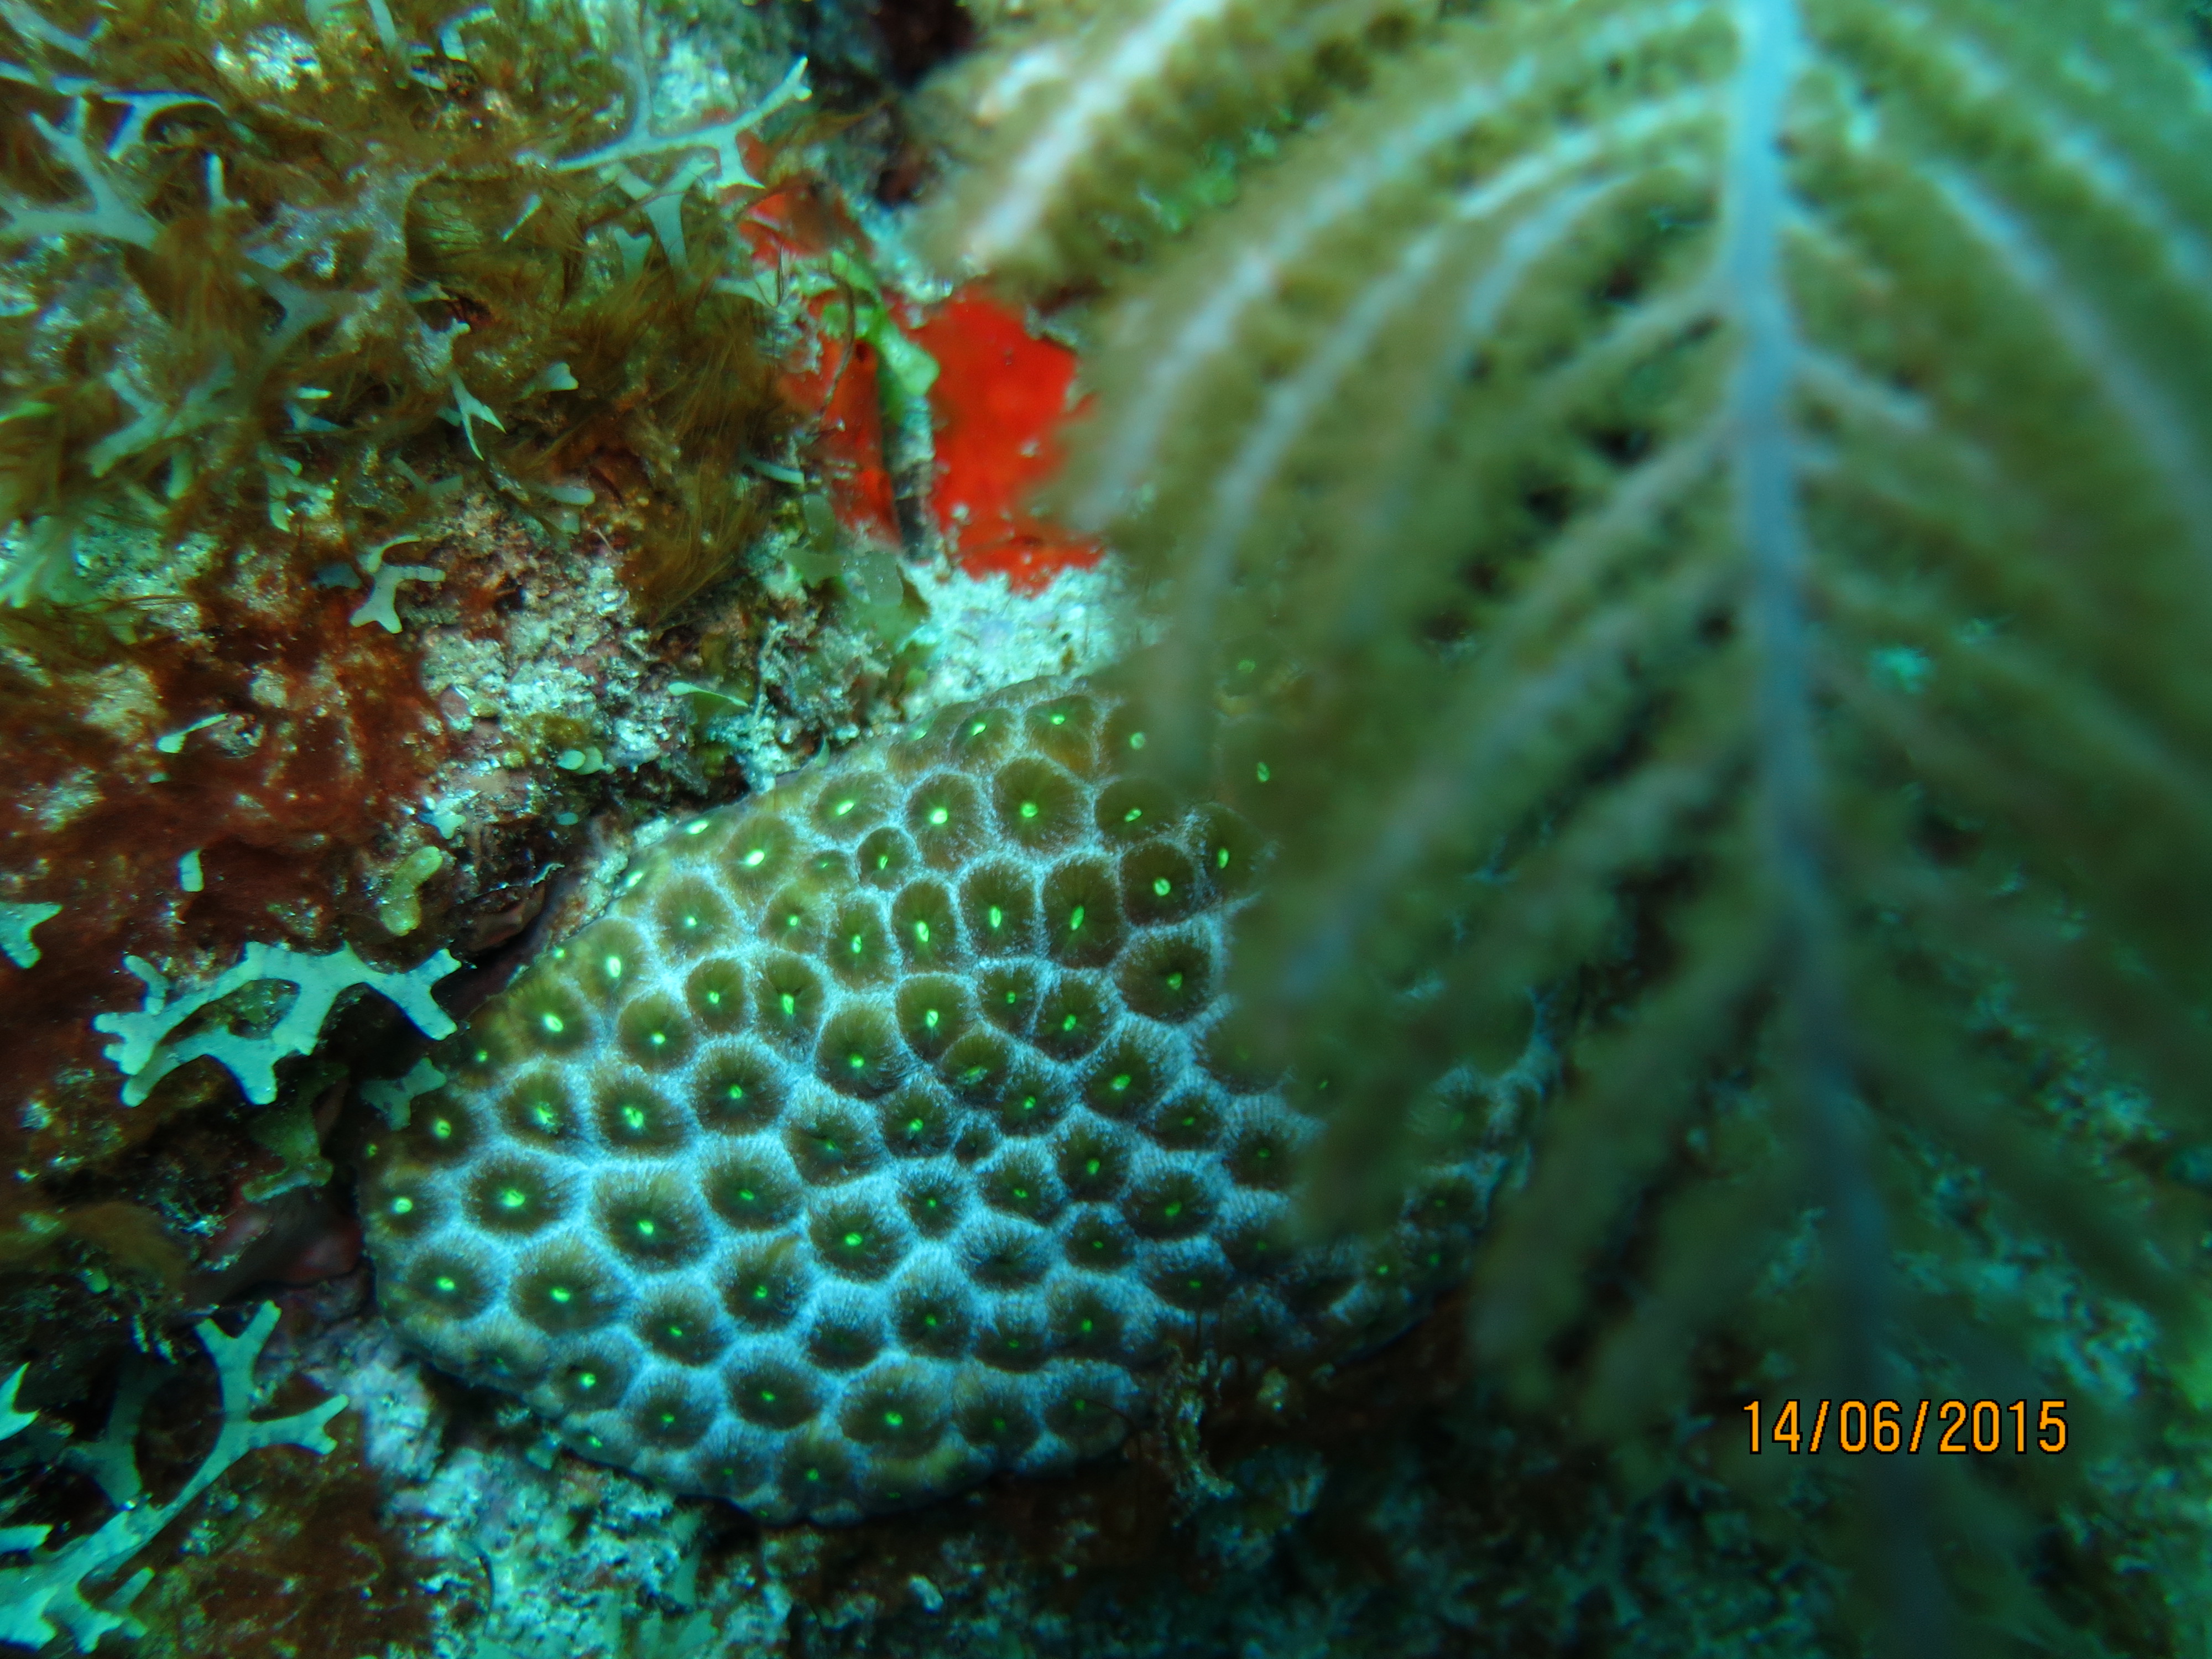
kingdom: Animalia
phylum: Cnidaria
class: Anthozoa
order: Scleractinia
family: Montastraeidae
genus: Montastraea
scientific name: Montastraea cavernosa
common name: Great star coral
